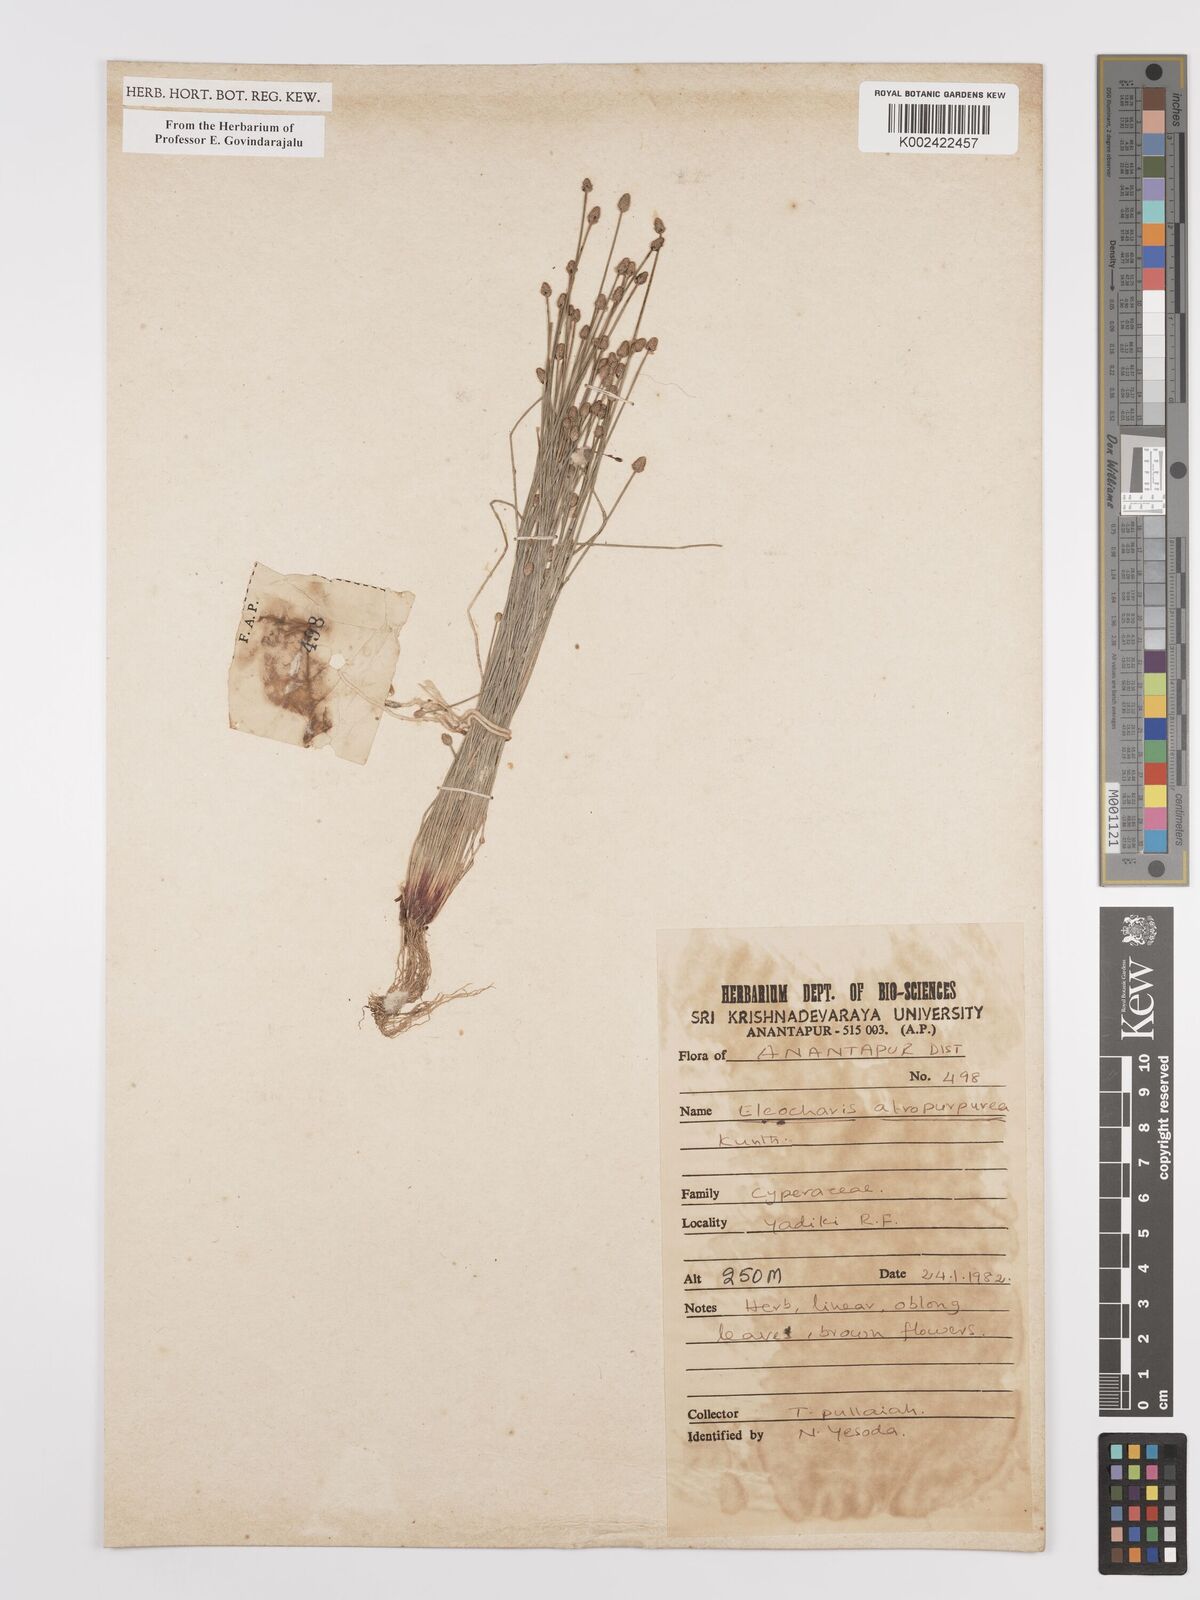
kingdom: Plantae
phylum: Tracheophyta
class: Liliopsida
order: Poales
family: Cyperaceae
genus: Eleocharis
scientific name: Eleocharis atropurpurea
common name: Purple spikerush
